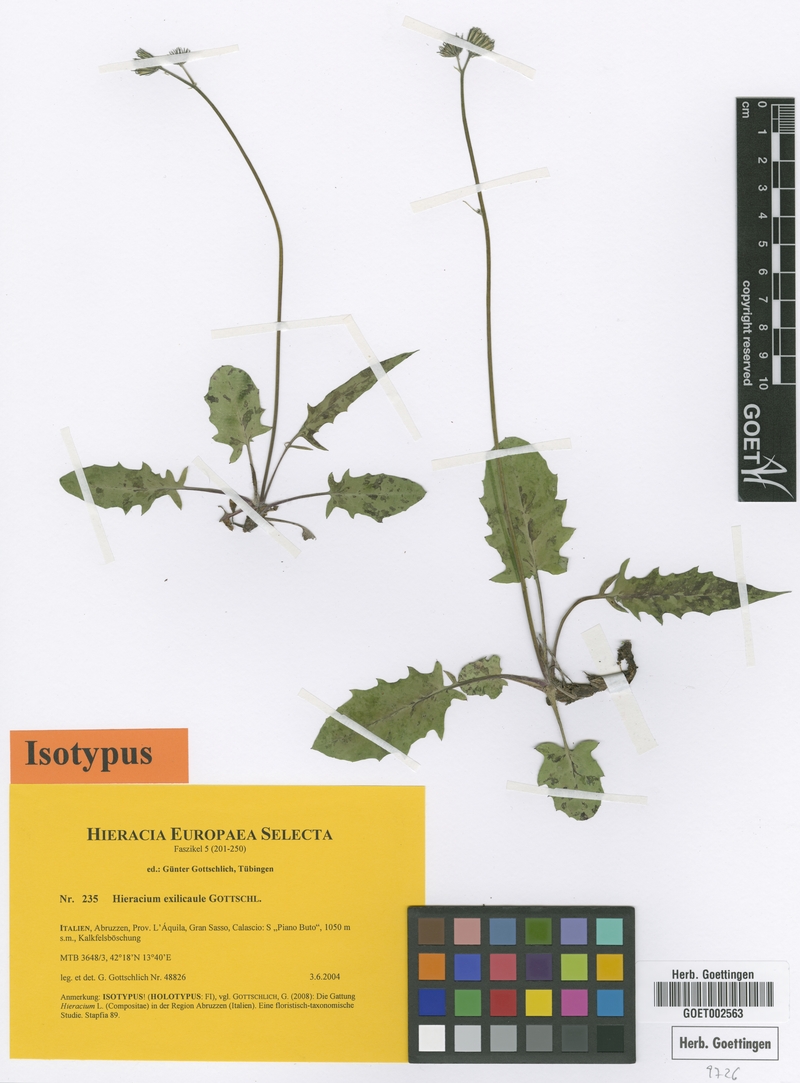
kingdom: Plantae
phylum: Tracheophyta
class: Magnoliopsida
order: Asterales
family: Asteraceae
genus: Hieracium
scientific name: Hieracium exilicaule
